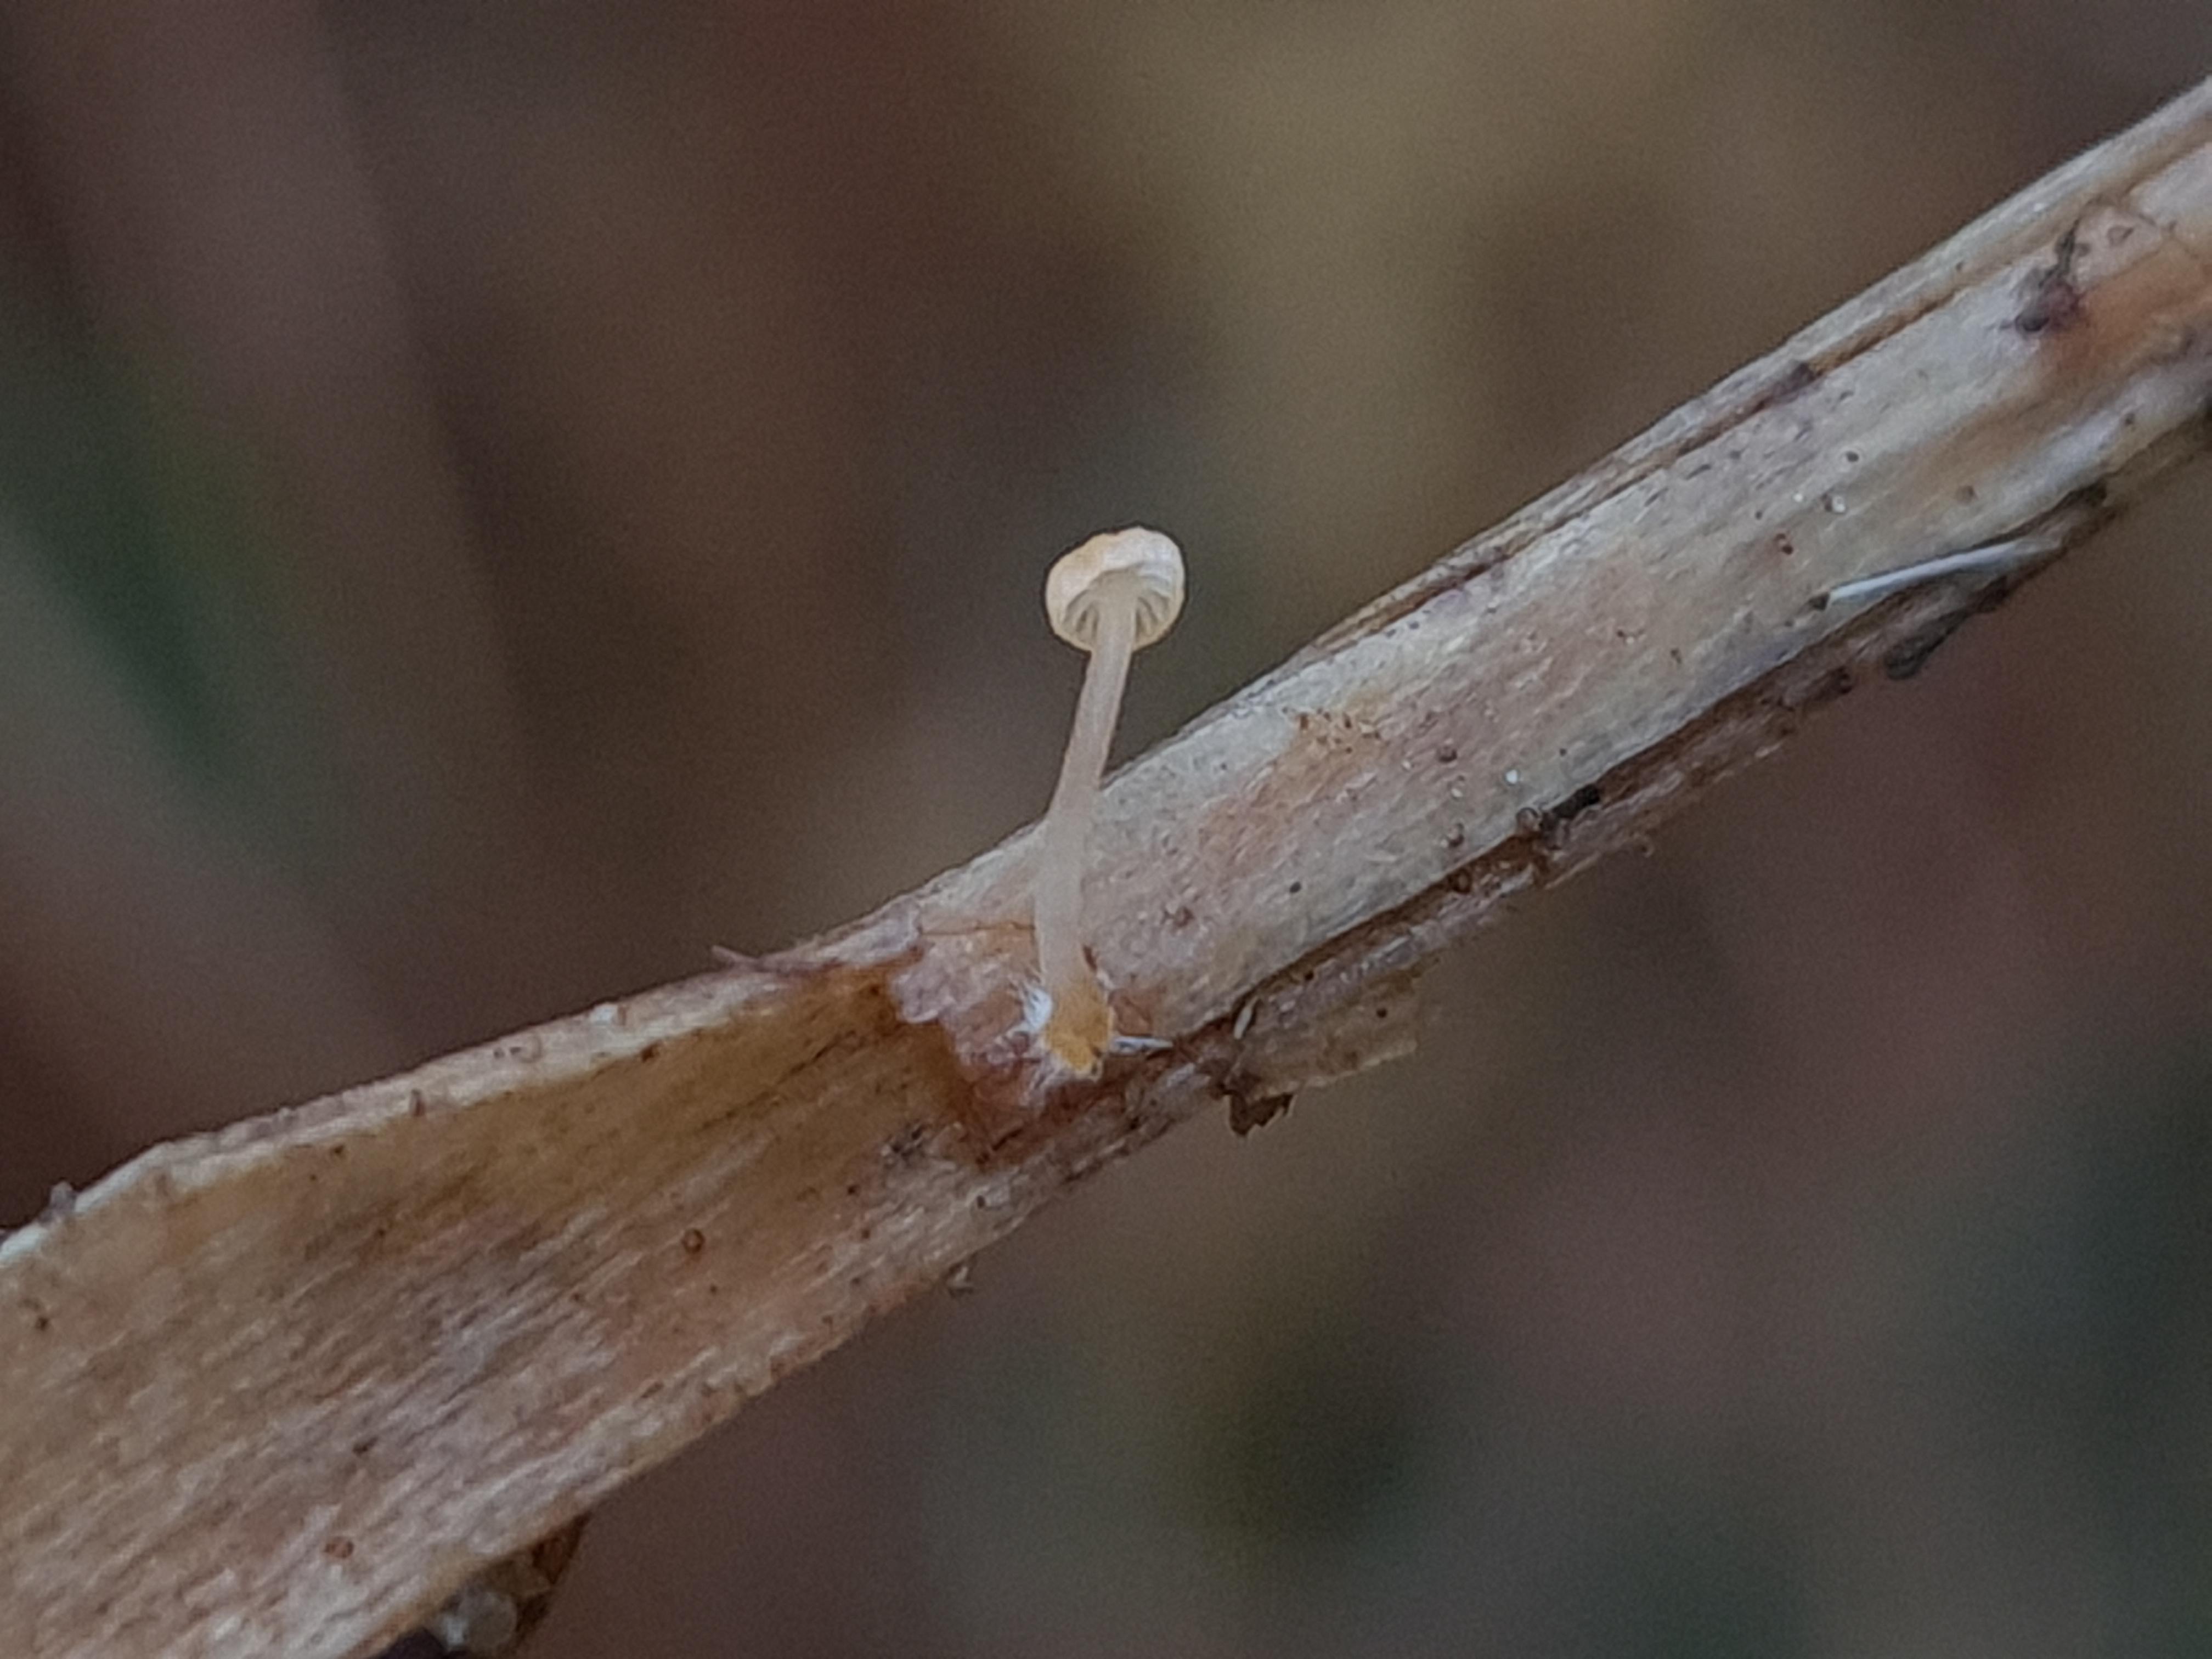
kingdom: Fungi
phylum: Basidiomycota
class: Agaricomycetes
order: Agaricales
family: Mycenaceae
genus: Mycena
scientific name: Mycena
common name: huesvamp
